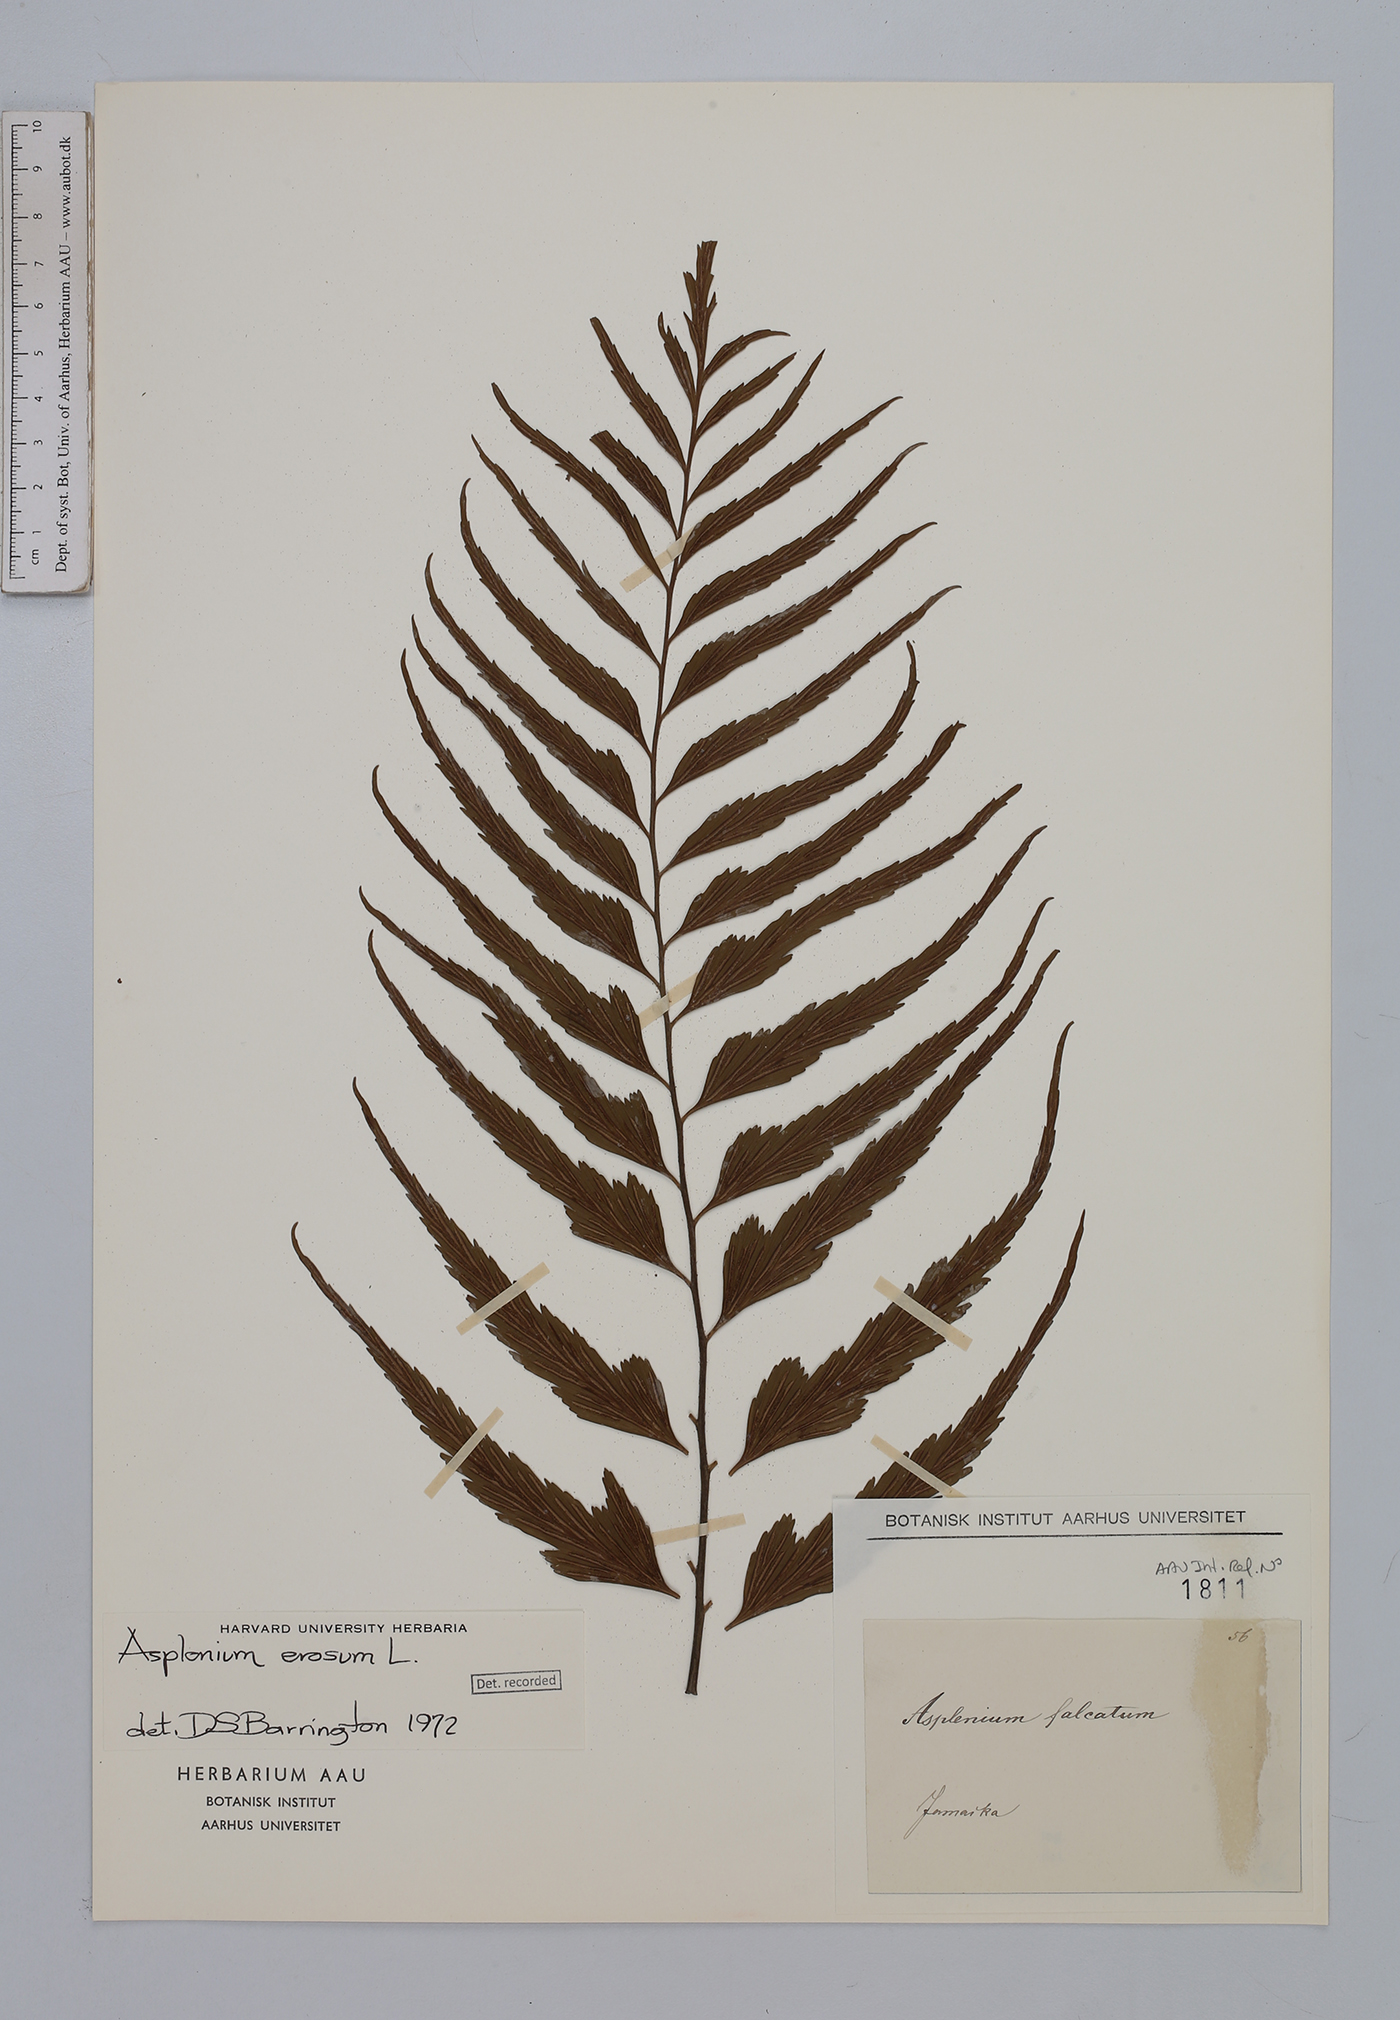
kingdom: Plantae
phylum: Tracheophyta
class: Polypodiopsida
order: Polypodiales
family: Aspleniaceae
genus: Asplenium
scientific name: Asplenium erosum
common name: Eared spleenwort
